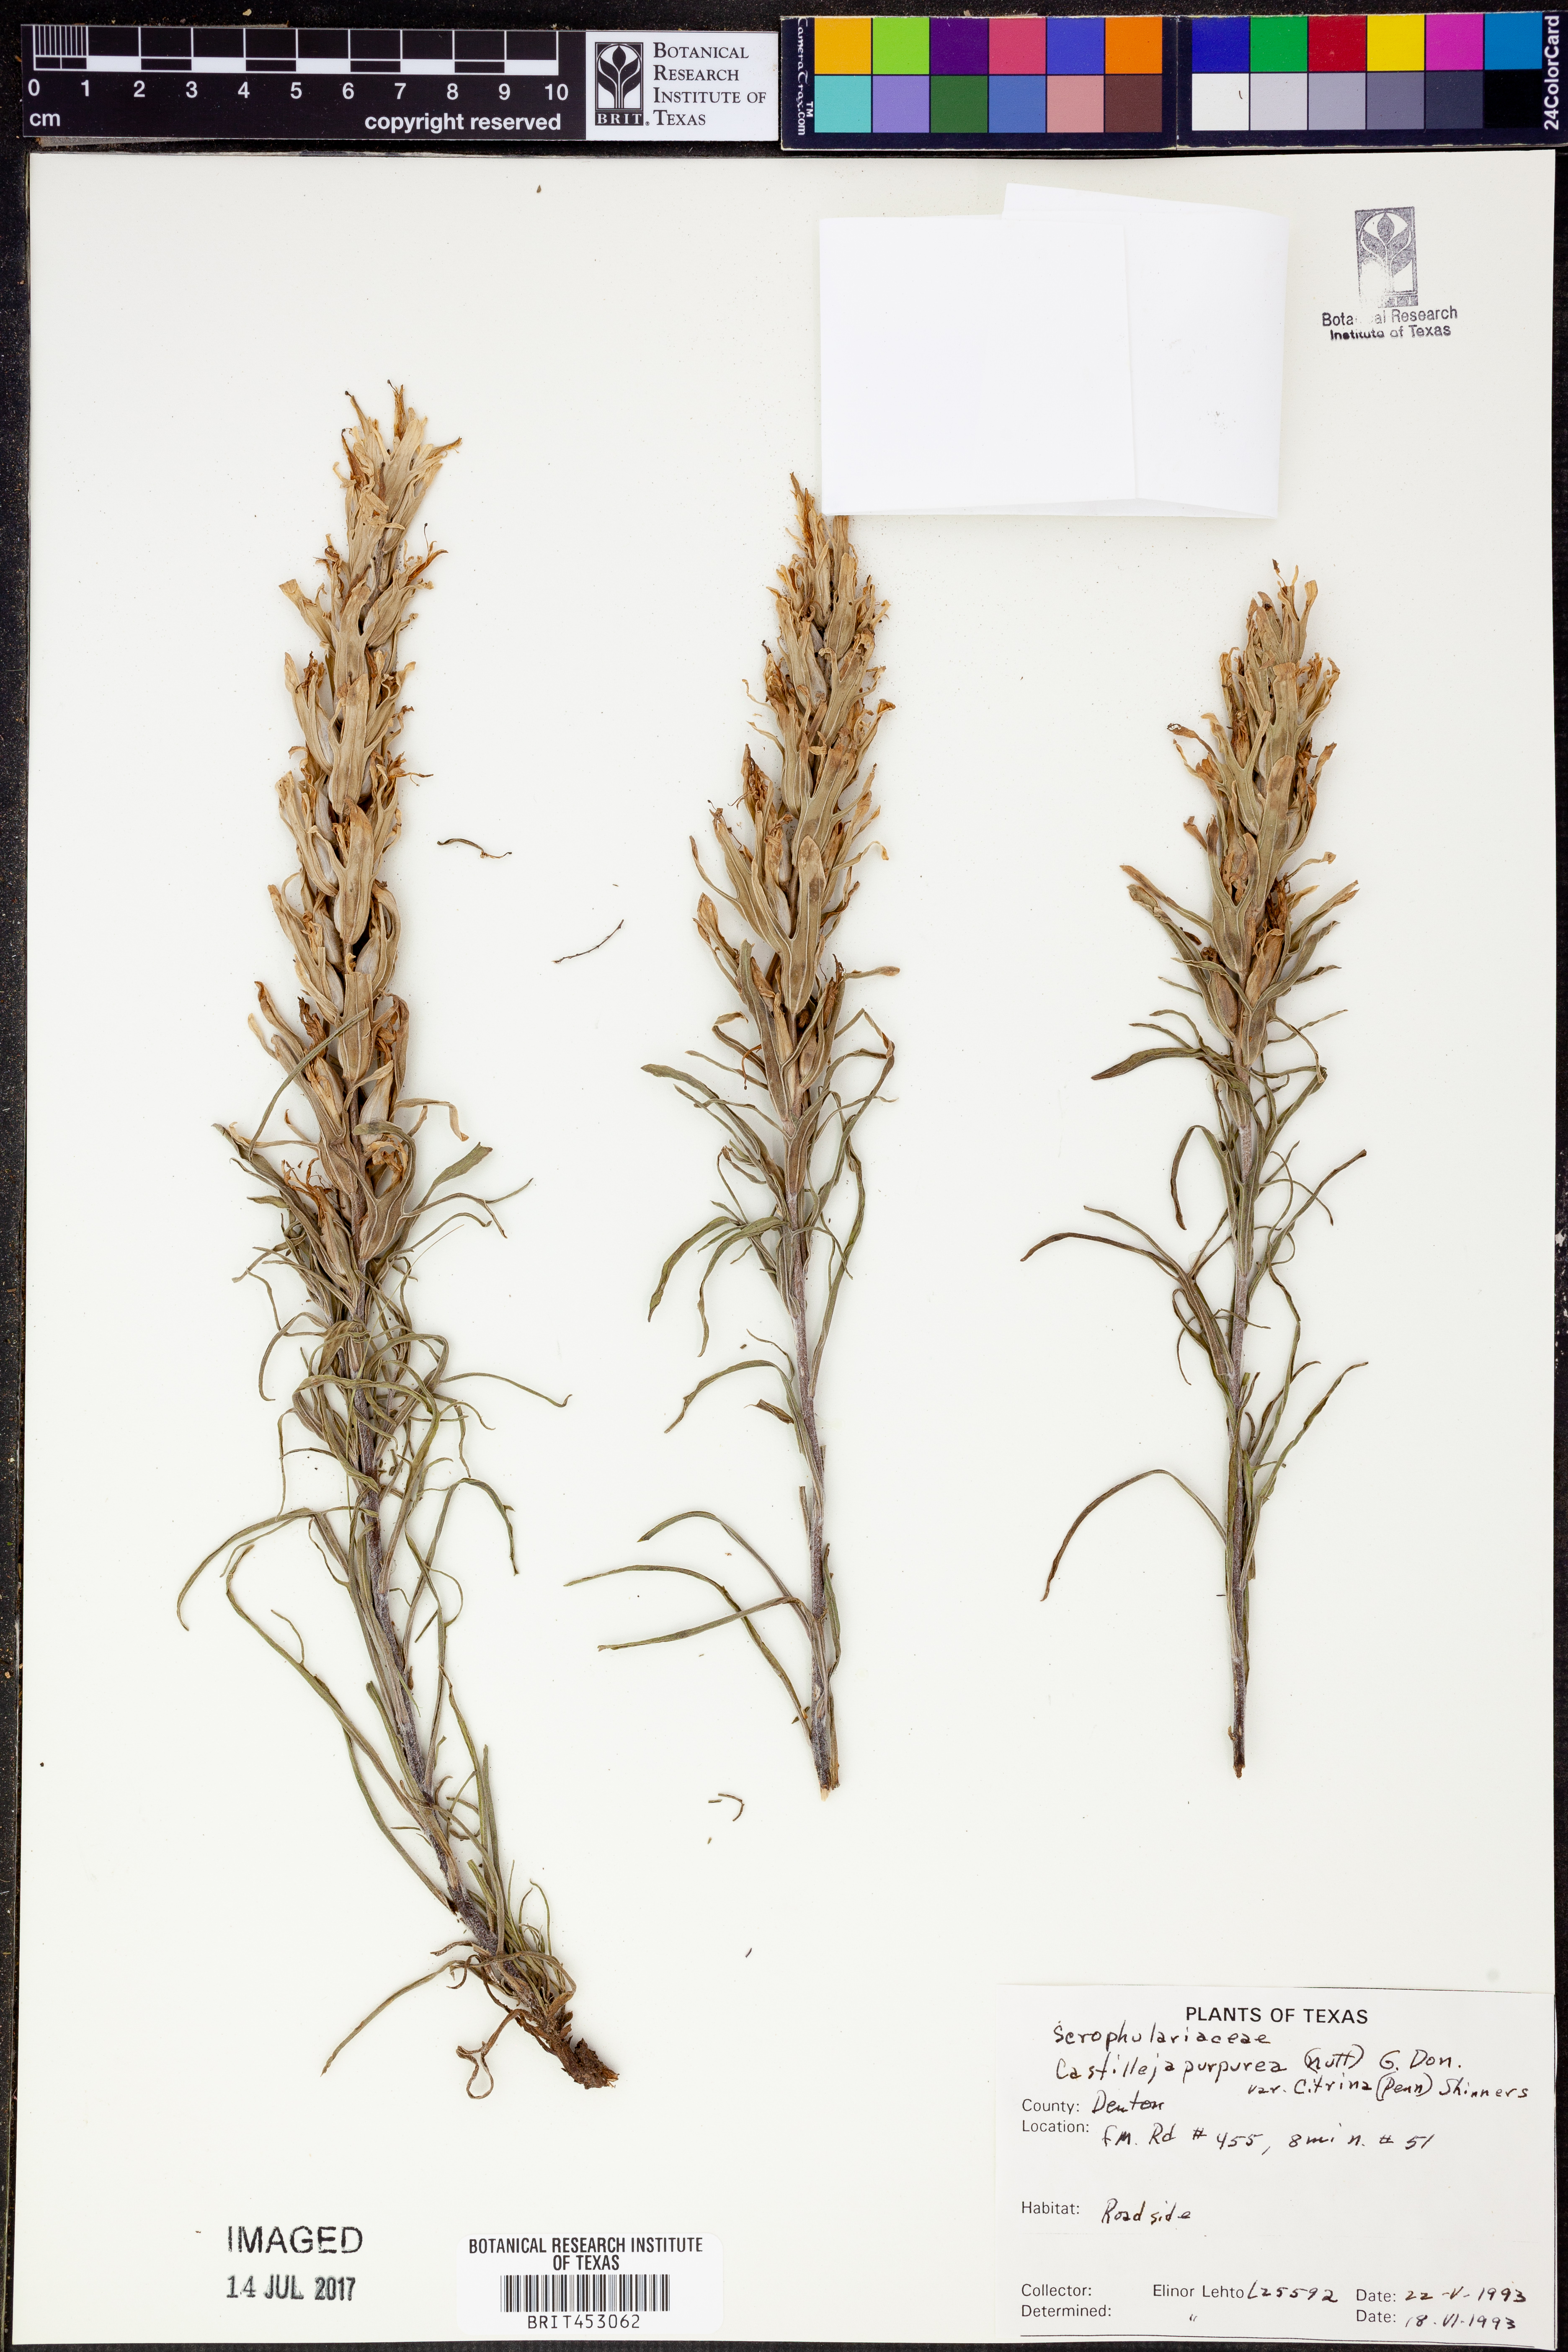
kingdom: Plantae
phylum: Tracheophyta
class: Magnoliopsida
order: Lamiales
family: Orobanchaceae
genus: Castilleja
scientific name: Castilleja citrina
